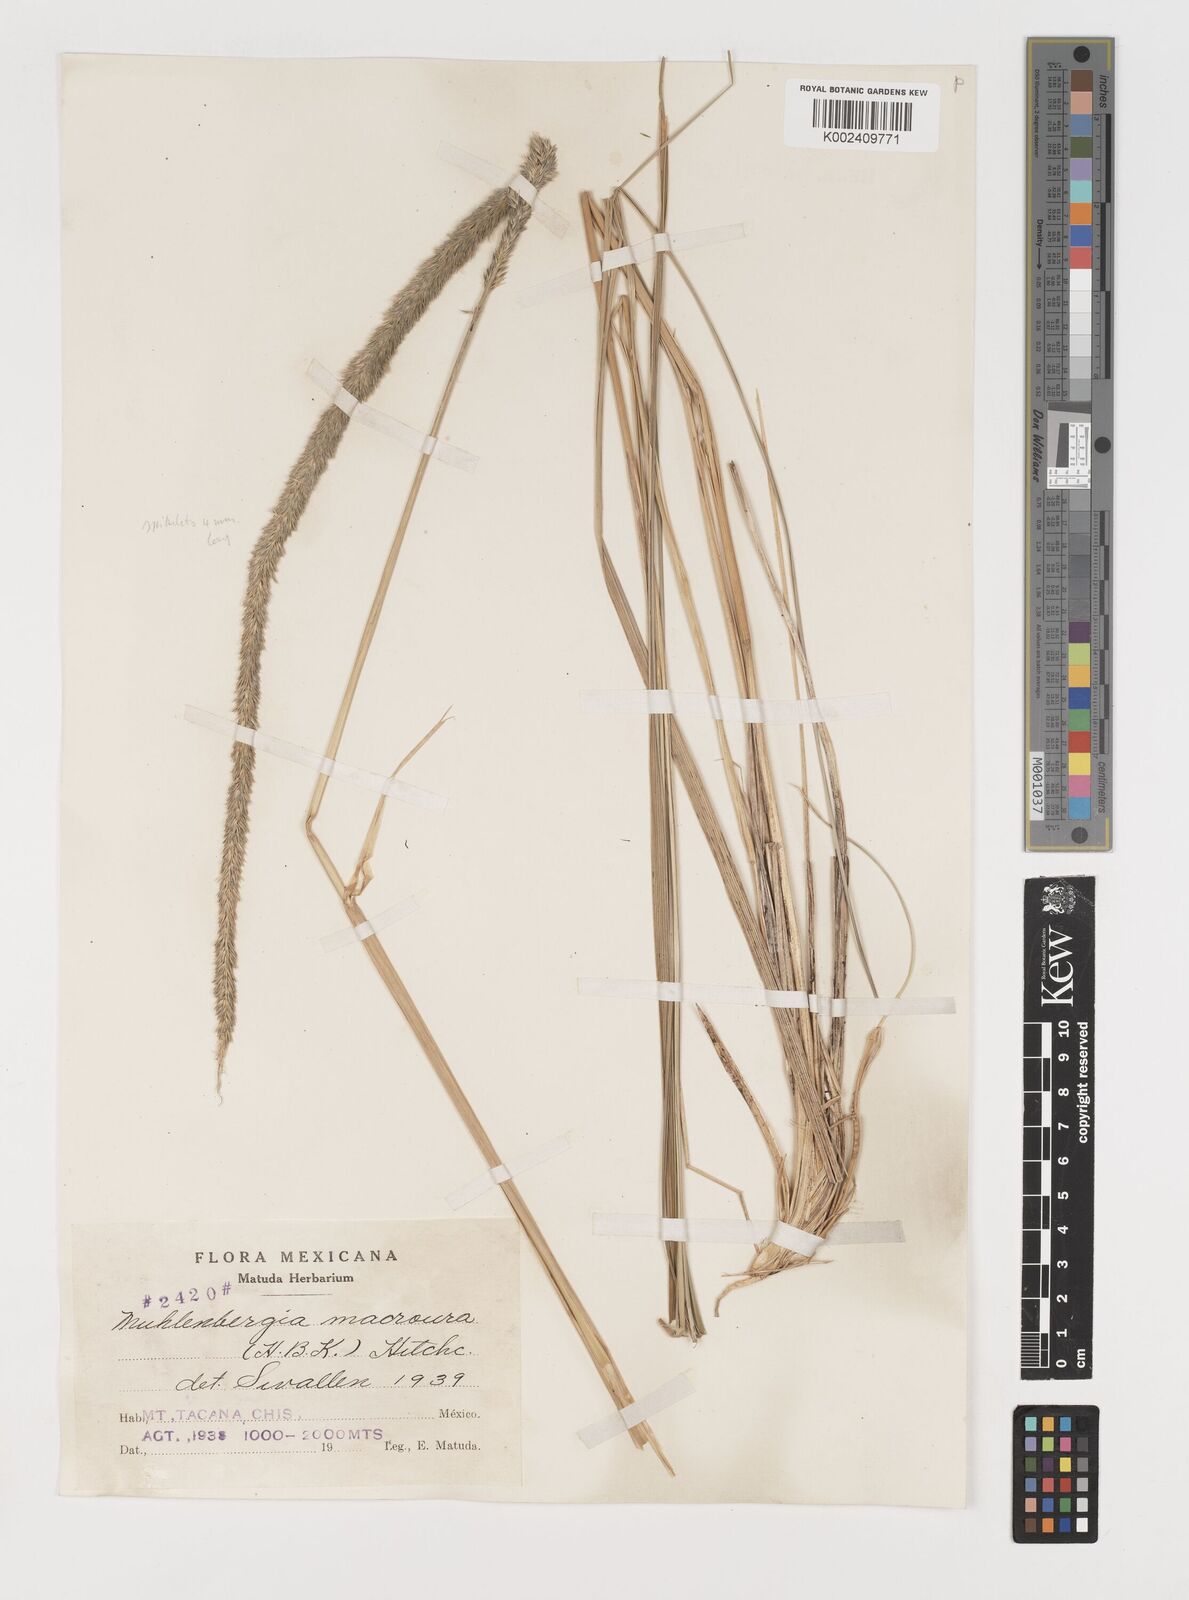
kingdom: Plantae
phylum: Tracheophyta
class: Liliopsida
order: Poales
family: Poaceae
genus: Muhlenbergia
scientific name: Muhlenbergia macroura
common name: Mexican broomroot
